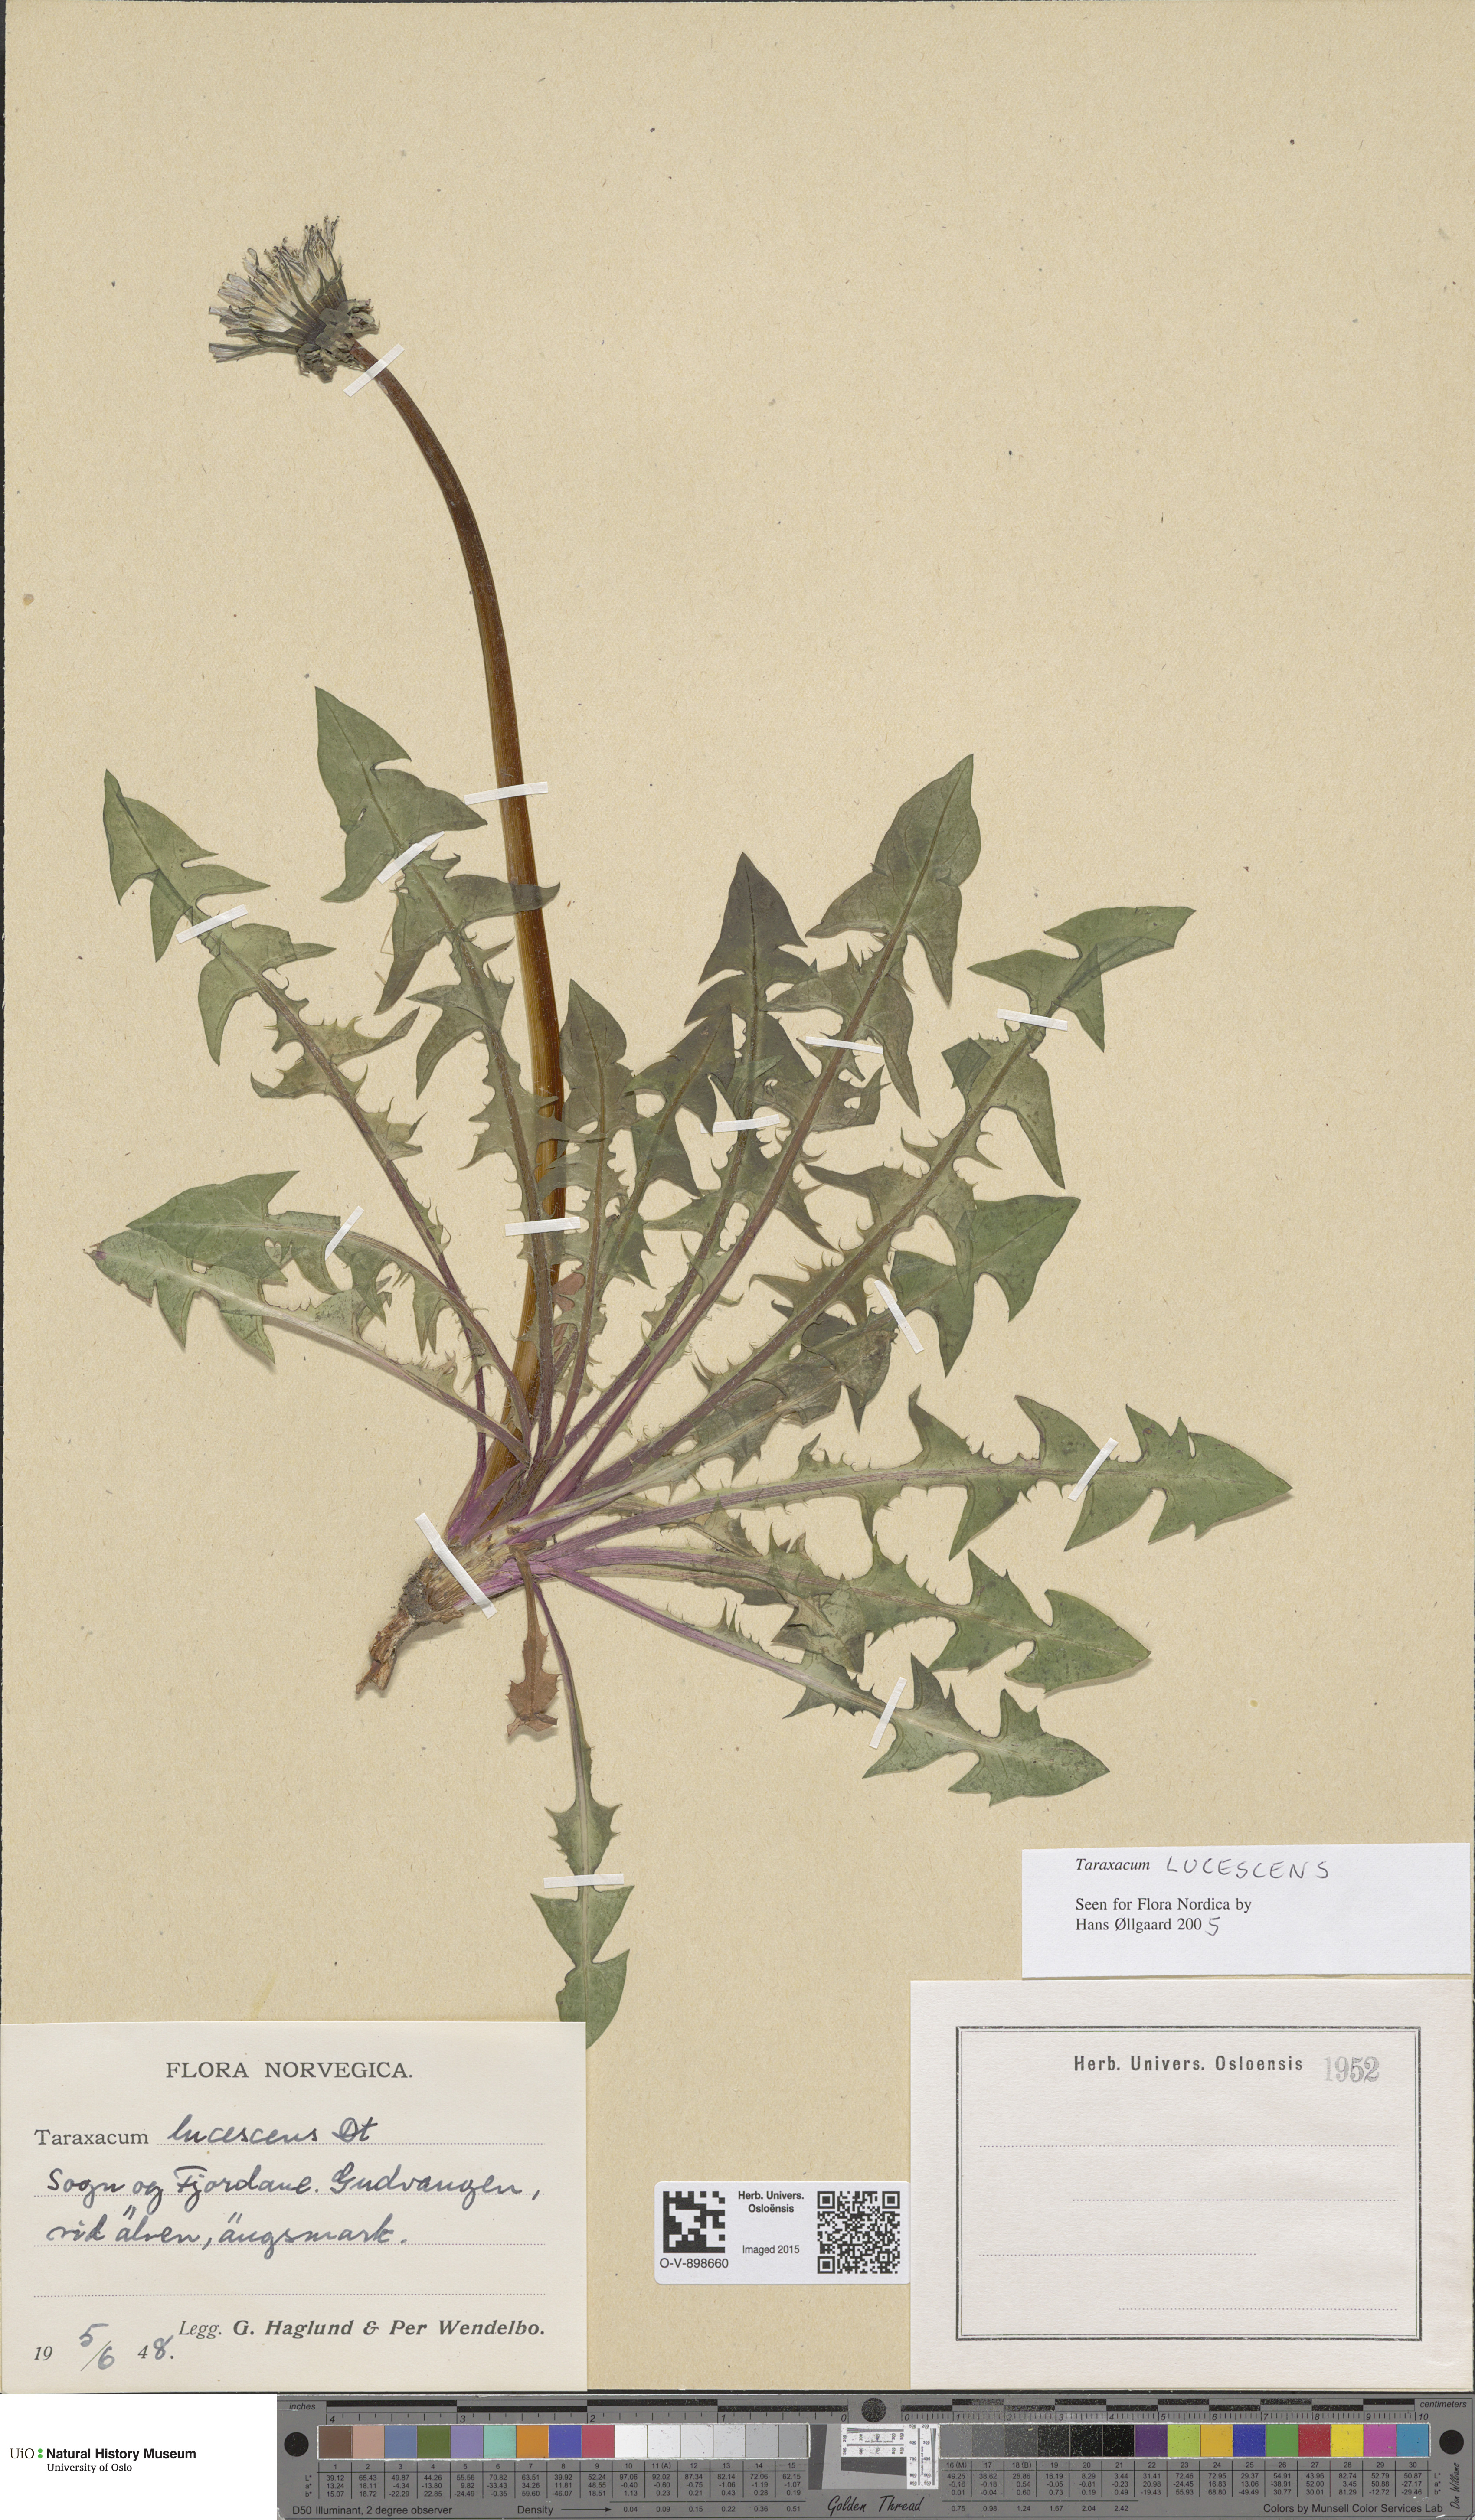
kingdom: Plantae
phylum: Tracheophyta
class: Magnoliopsida
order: Asterales
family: Asteraceae
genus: Taraxacum
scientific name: Taraxacum lucescens
